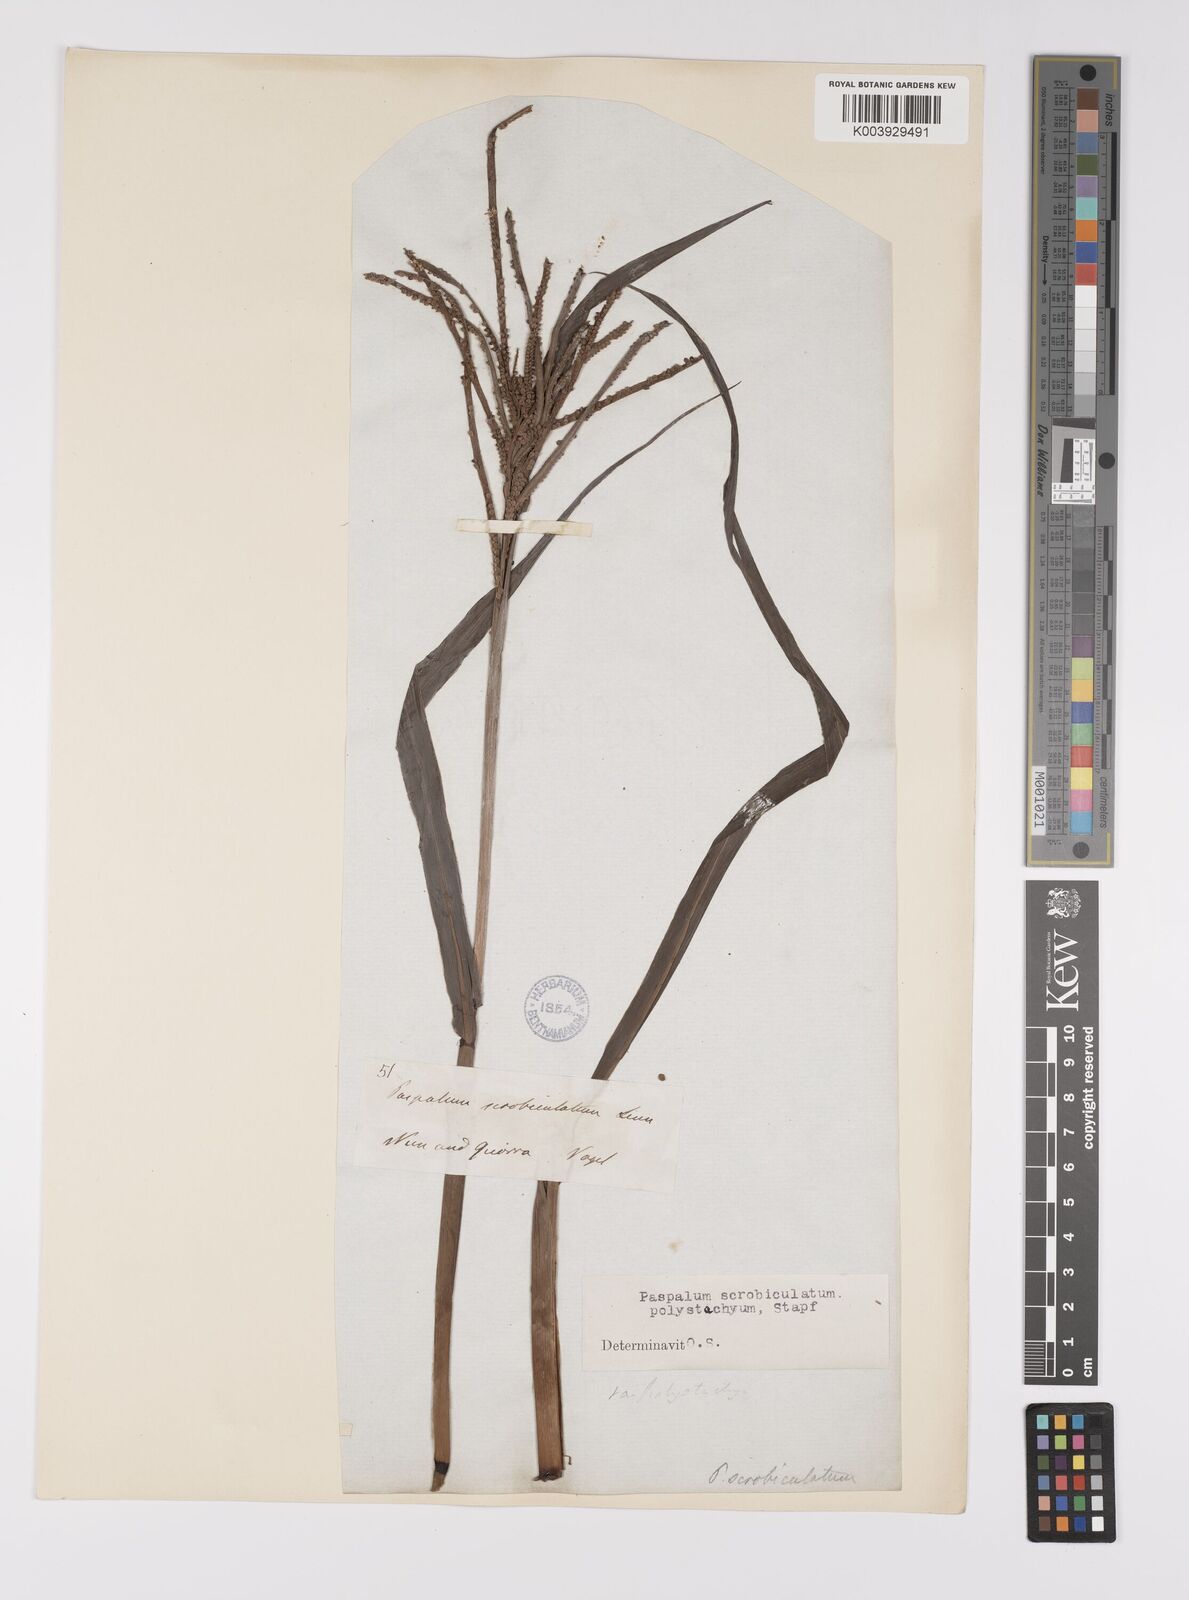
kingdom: Plantae
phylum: Tracheophyta
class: Liliopsida
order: Poales
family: Poaceae
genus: Paspalum
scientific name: Paspalum scrobiculatum
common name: Kodo millet
